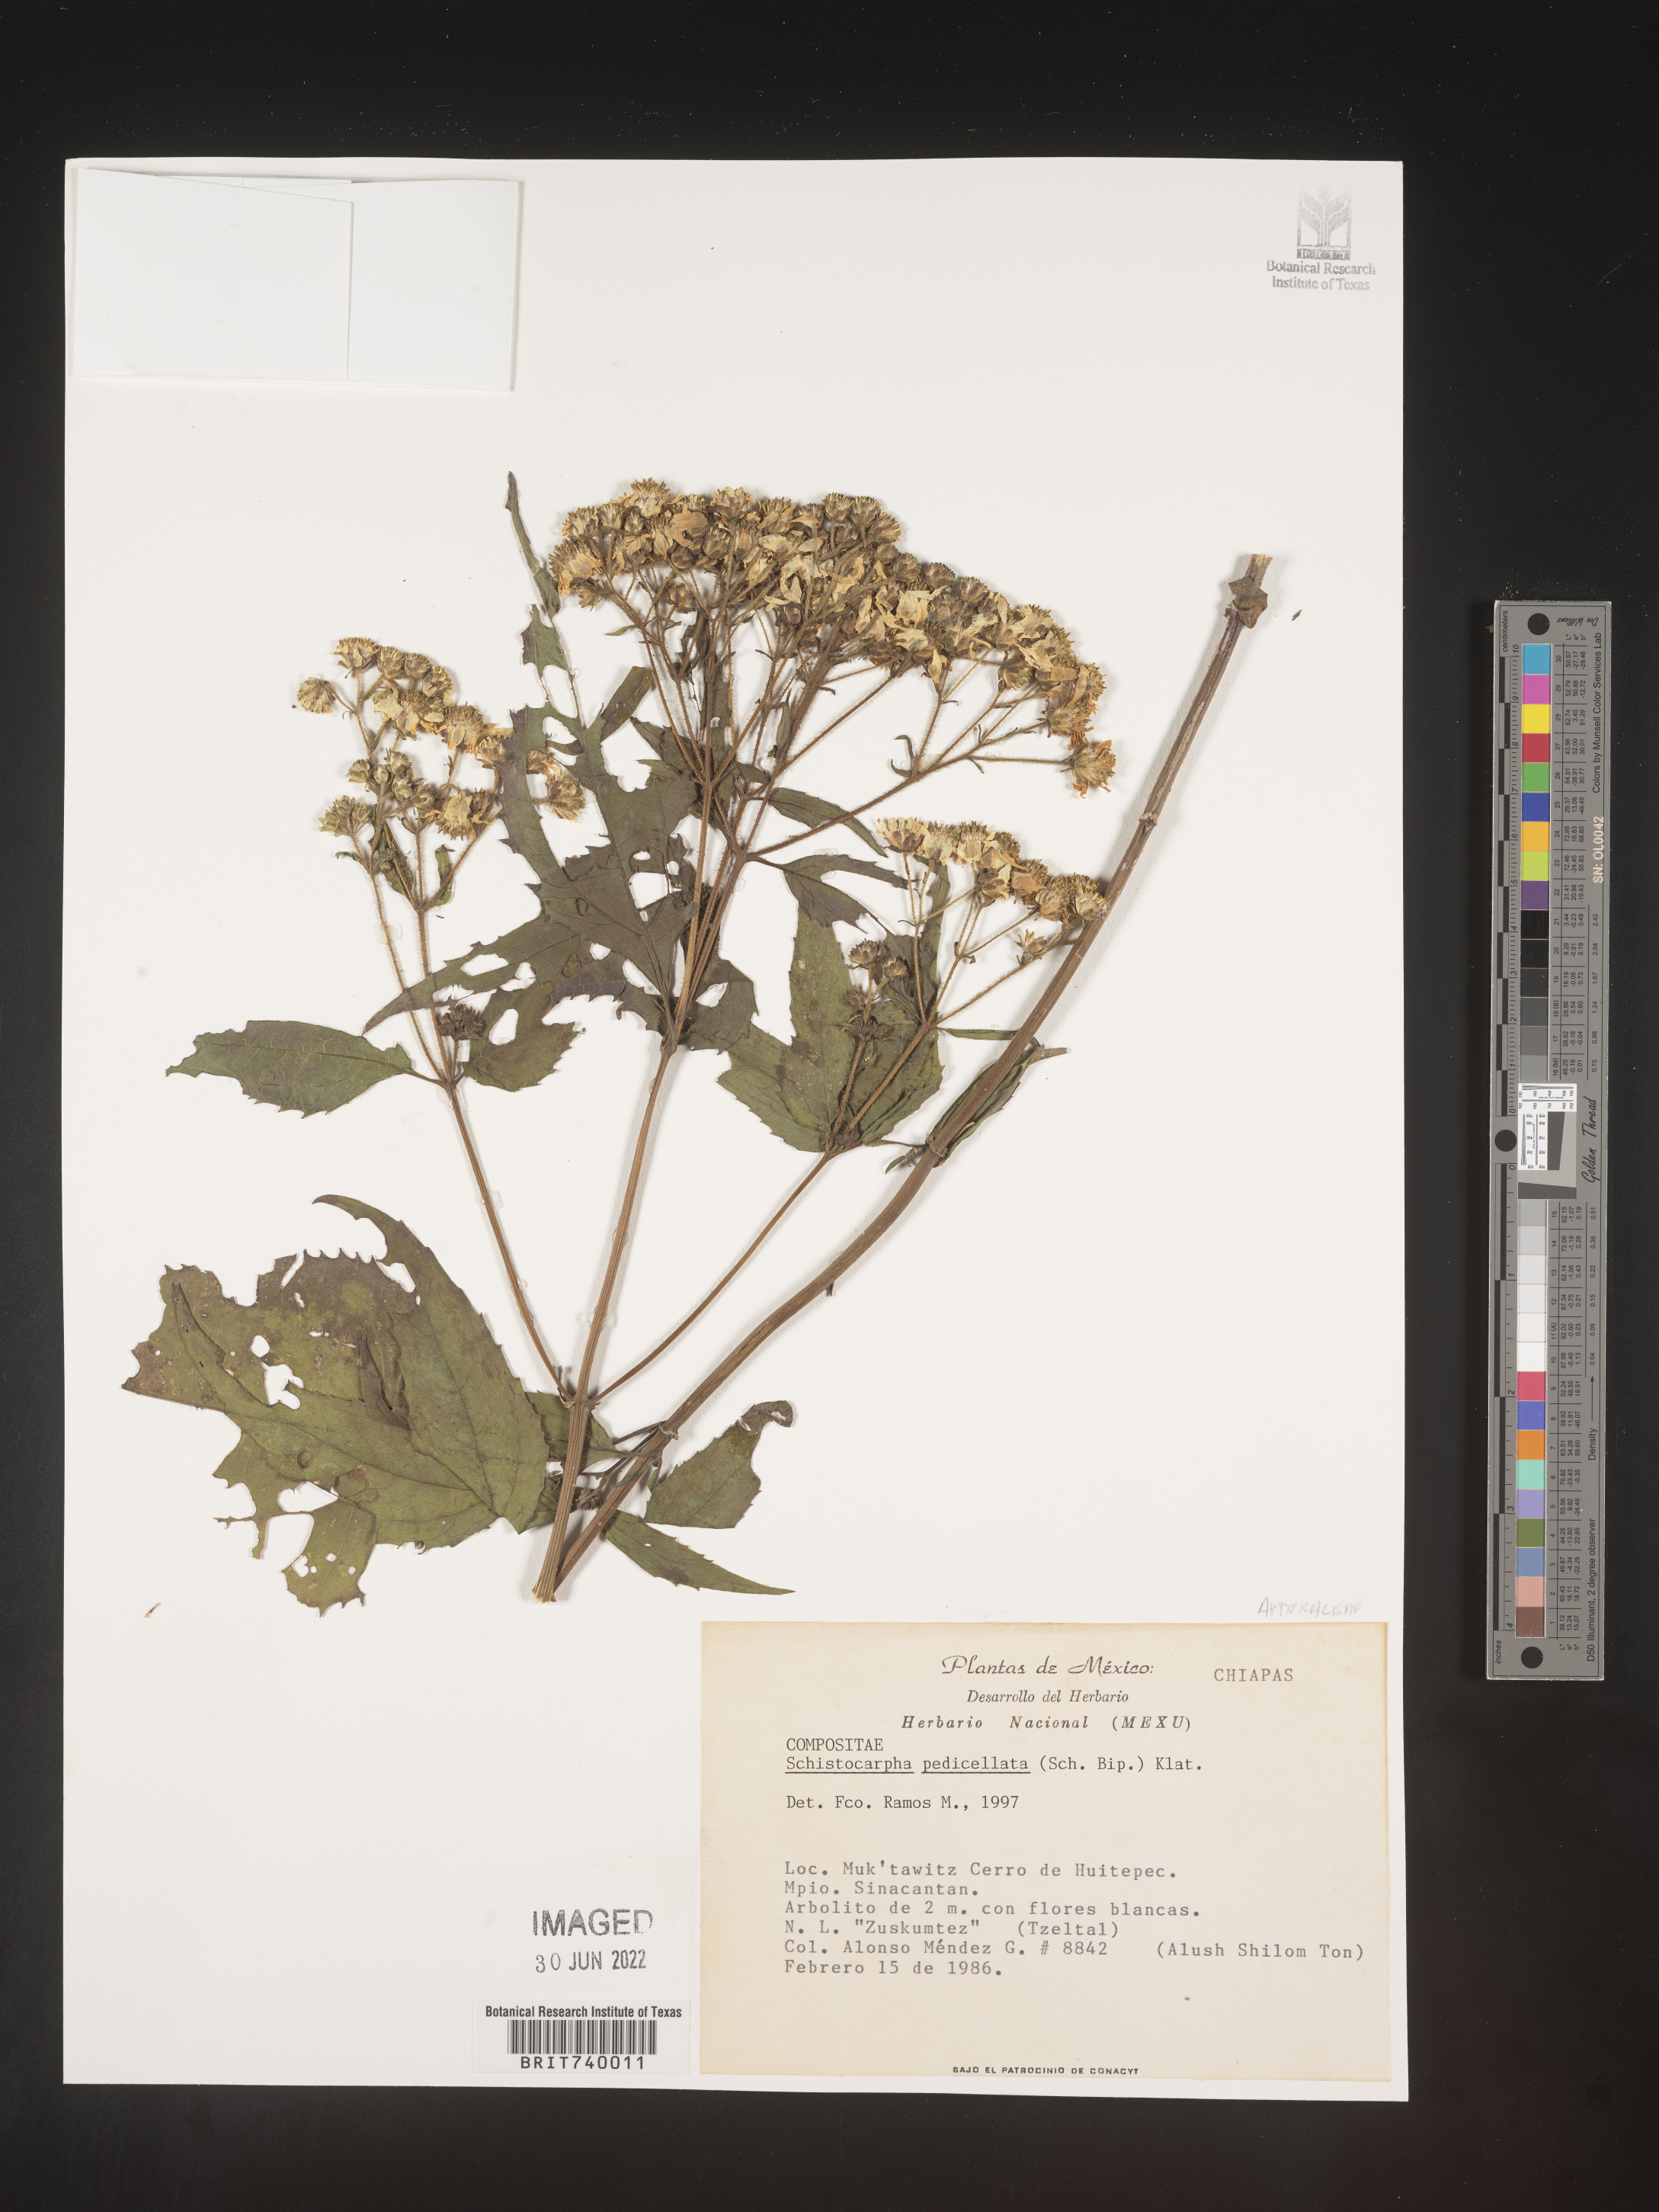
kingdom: Plantae
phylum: Tracheophyta
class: Magnoliopsida
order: Asterales
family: Asteraceae
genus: Schistocarpha
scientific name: Schistocarpha
